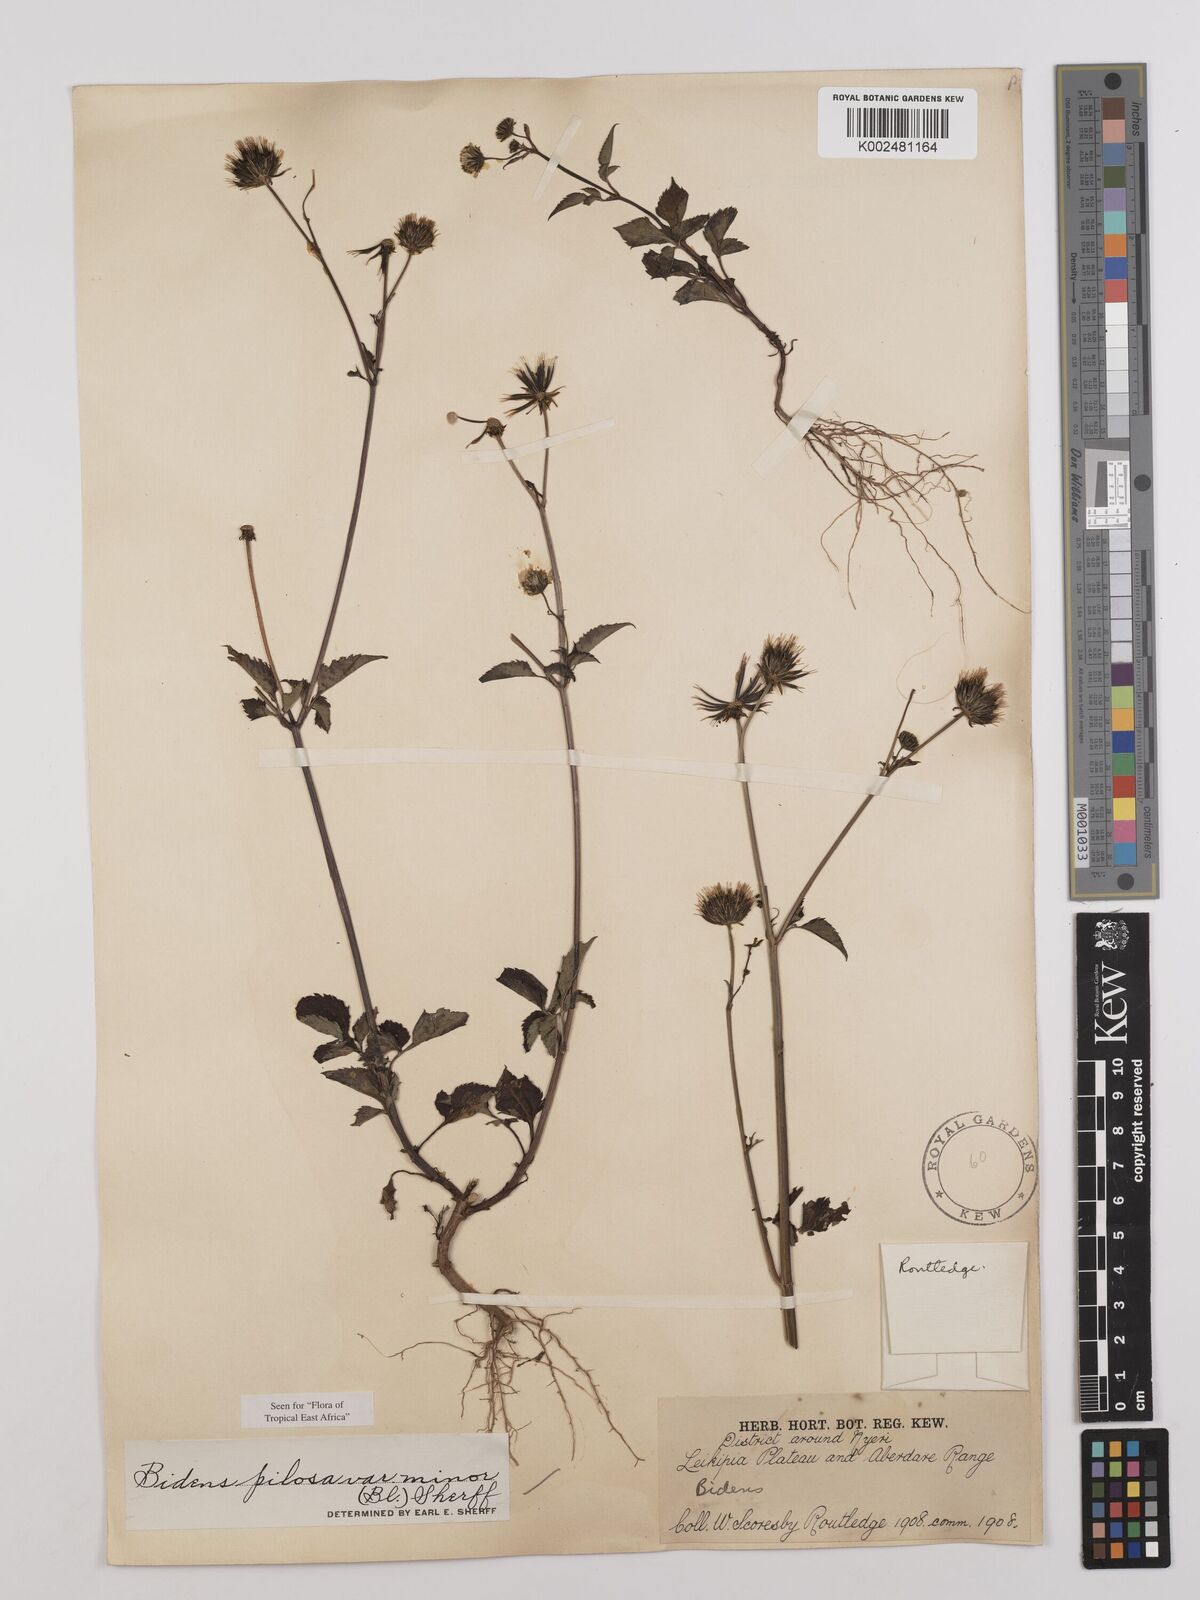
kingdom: Plantae
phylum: Tracheophyta
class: Magnoliopsida
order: Asterales
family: Asteraceae
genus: Bidens
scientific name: Bidens pilosa
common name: Black-jack
